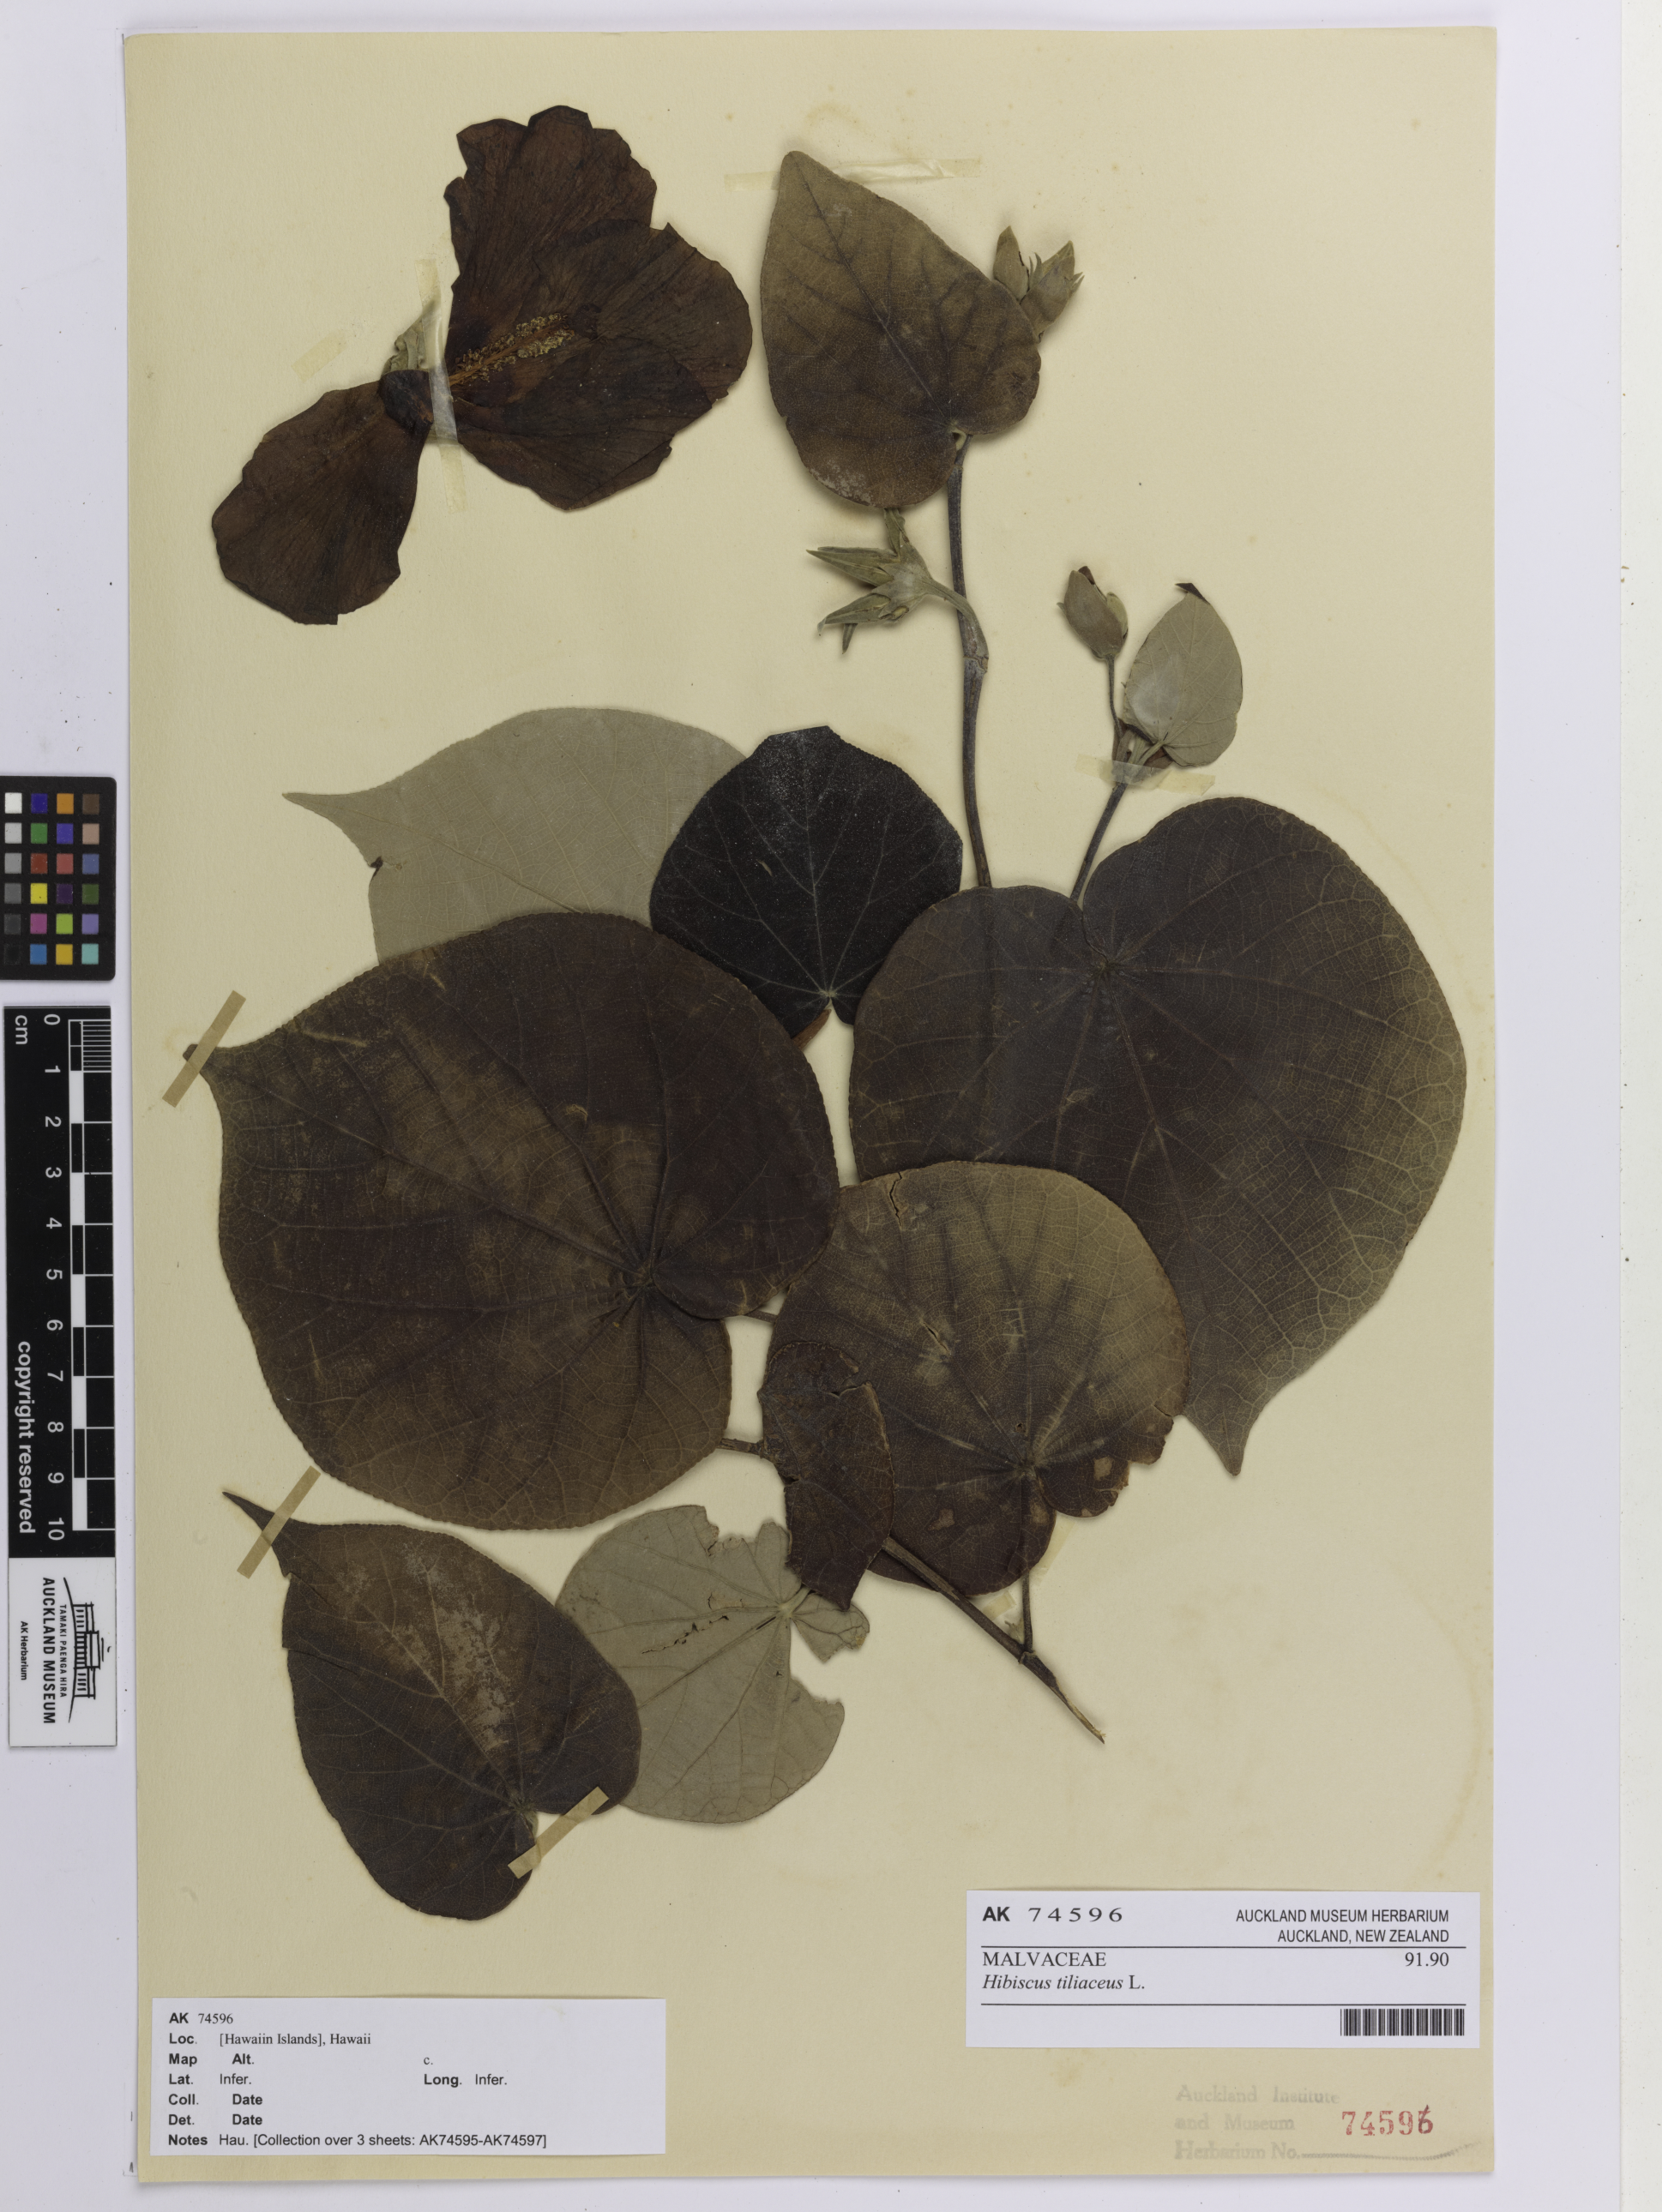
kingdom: Plantae
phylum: Tracheophyta
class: Magnoliopsida
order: Malvales
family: Malvaceae
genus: Talipariti
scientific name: Talipariti tiliaceum
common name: Sea hibiscus
